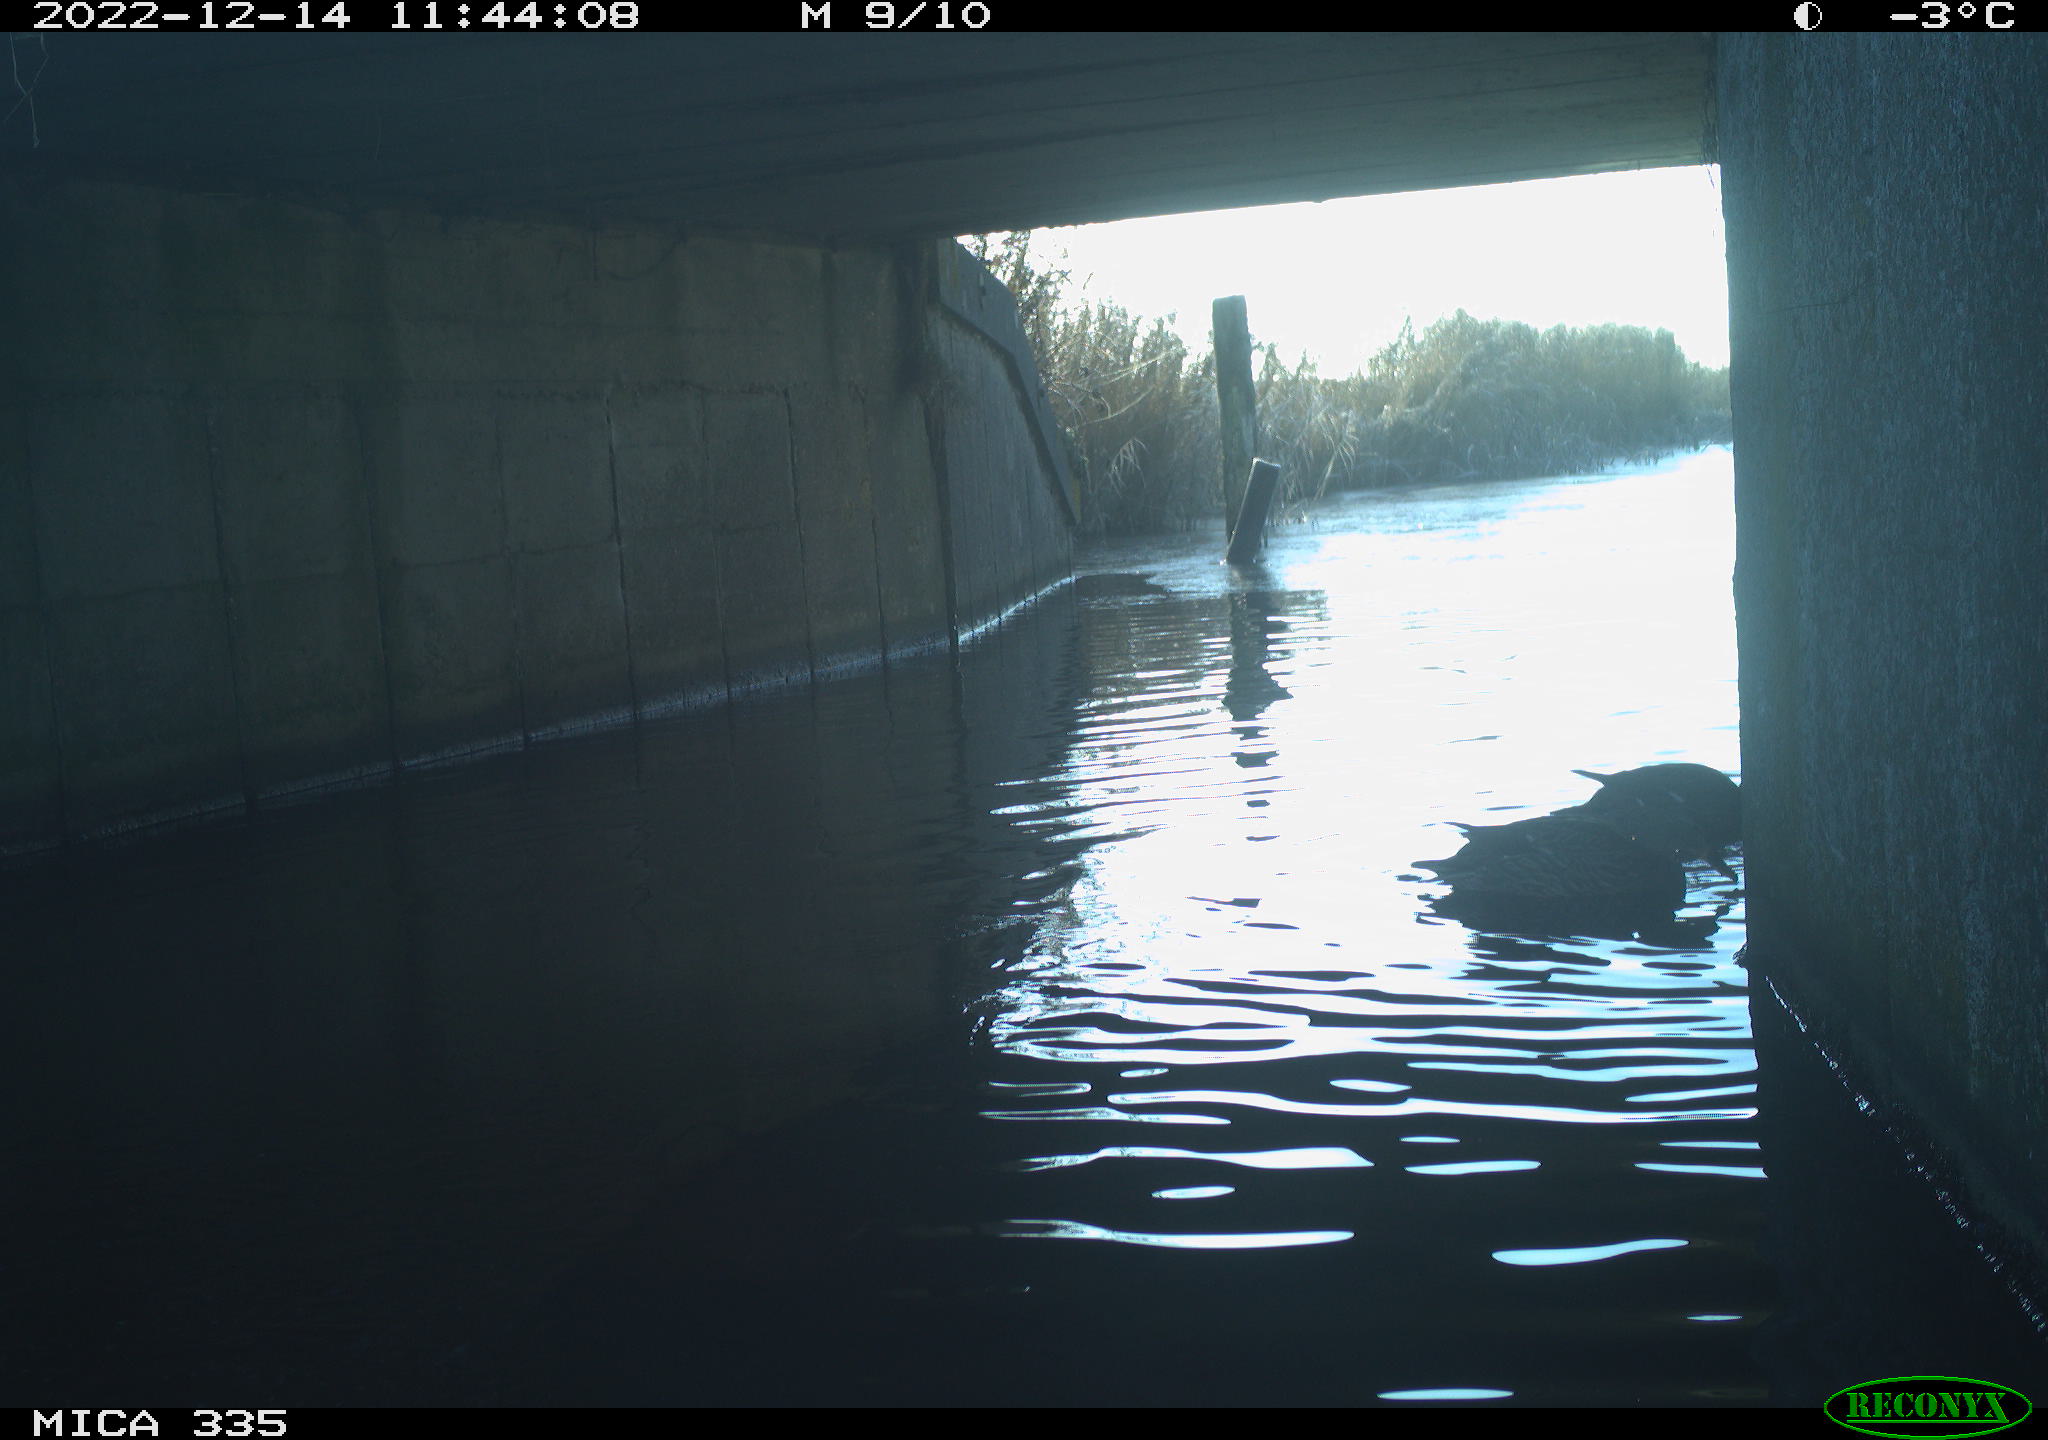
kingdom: Animalia
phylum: Chordata
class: Aves
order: Anseriformes
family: Anatidae
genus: Anas
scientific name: Anas
